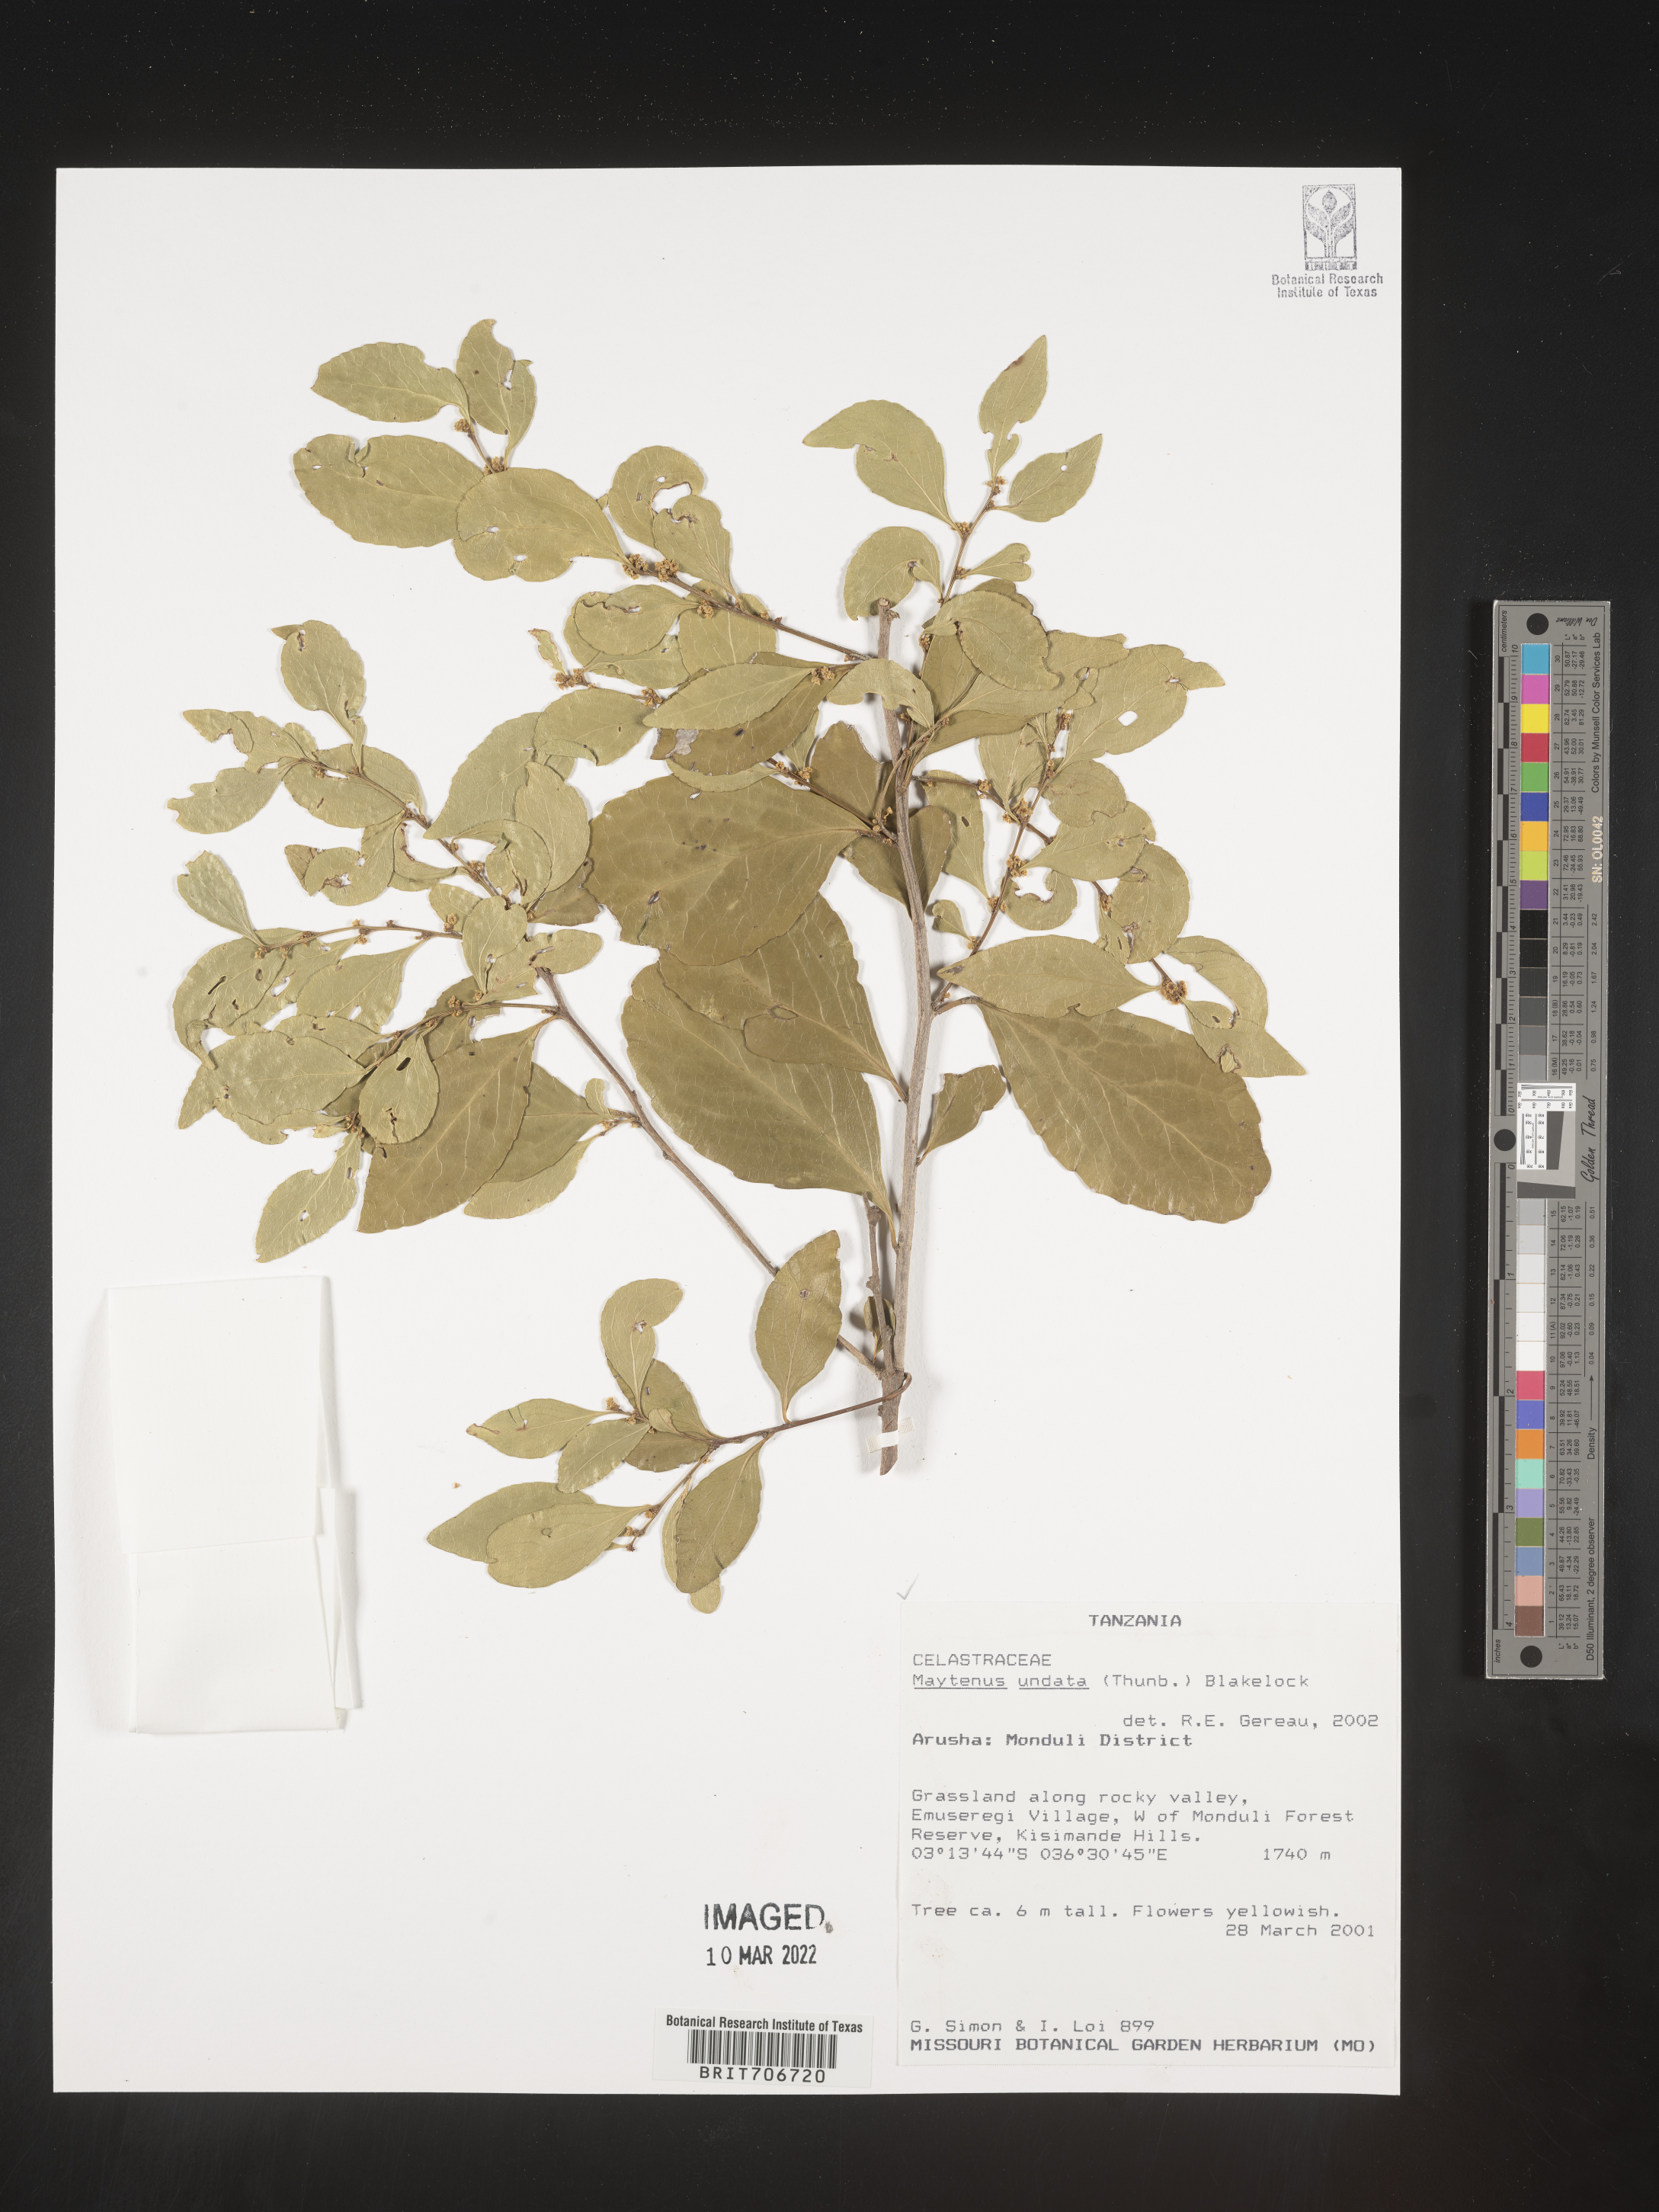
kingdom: Plantae
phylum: Tracheophyta
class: Magnoliopsida
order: Celastrales
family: Celastraceae
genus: Maytenus
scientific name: Maytenus
